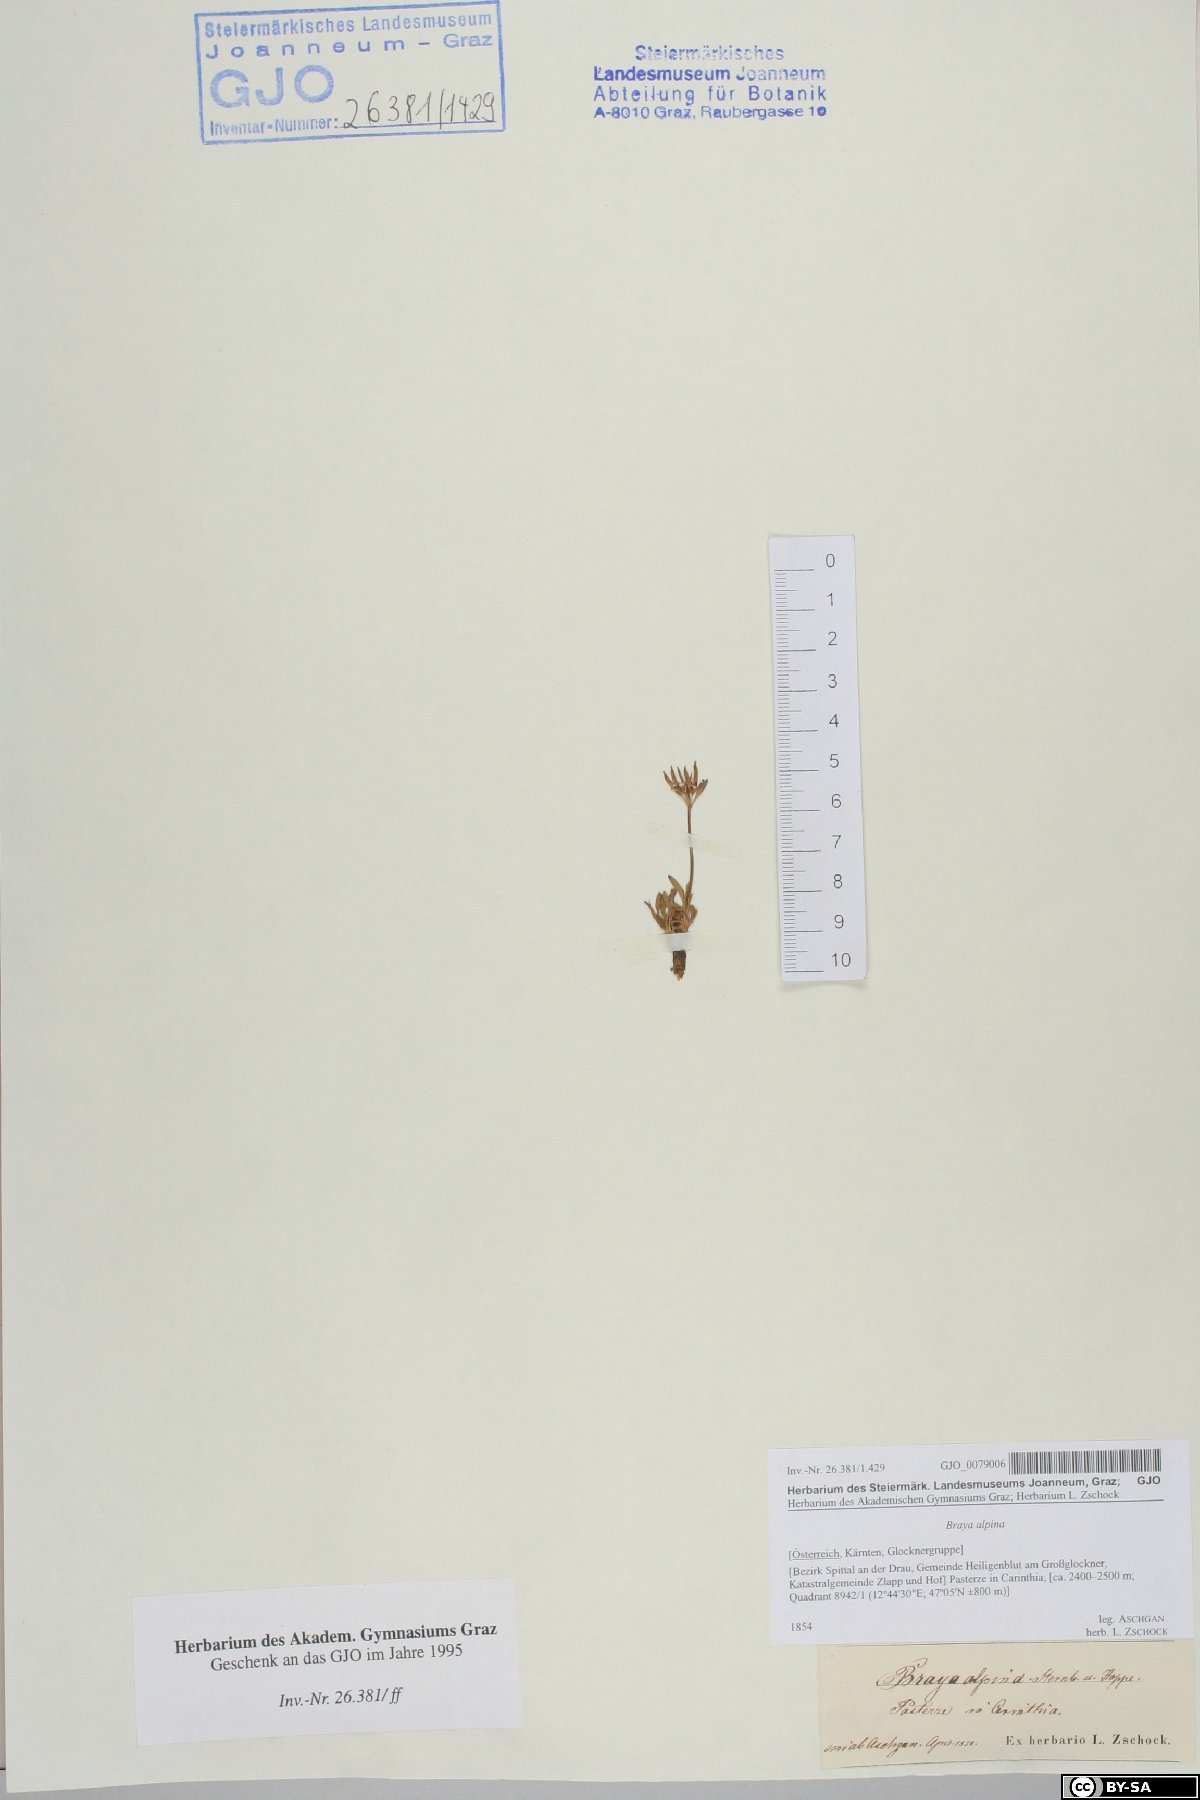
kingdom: Plantae
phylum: Tracheophyta
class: Magnoliopsida
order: Brassicales
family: Brassicaceae
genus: Braya
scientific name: Braya alpina
